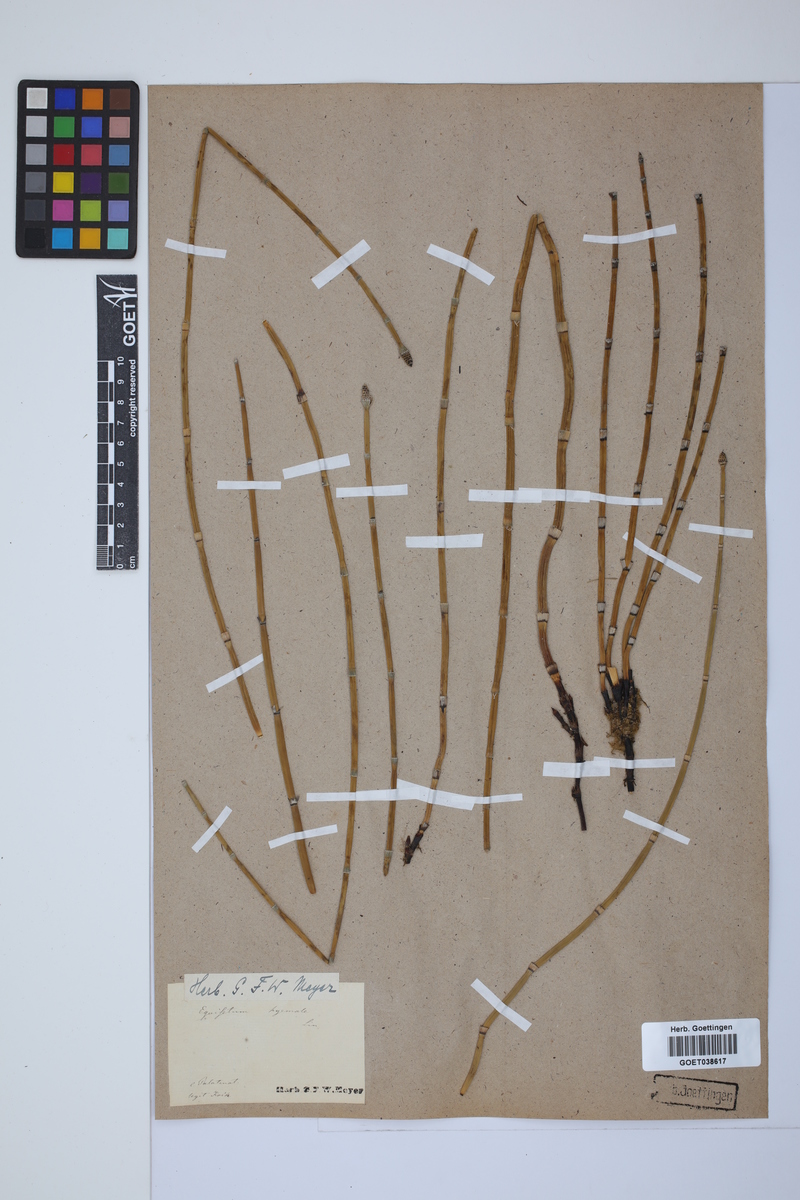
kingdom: Plantae
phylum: Tracheophyta
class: Polypodiopsida
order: Equisetales
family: Equisetaceae
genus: Equisetum
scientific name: Equisetum hyemale
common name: Rough horsetail
